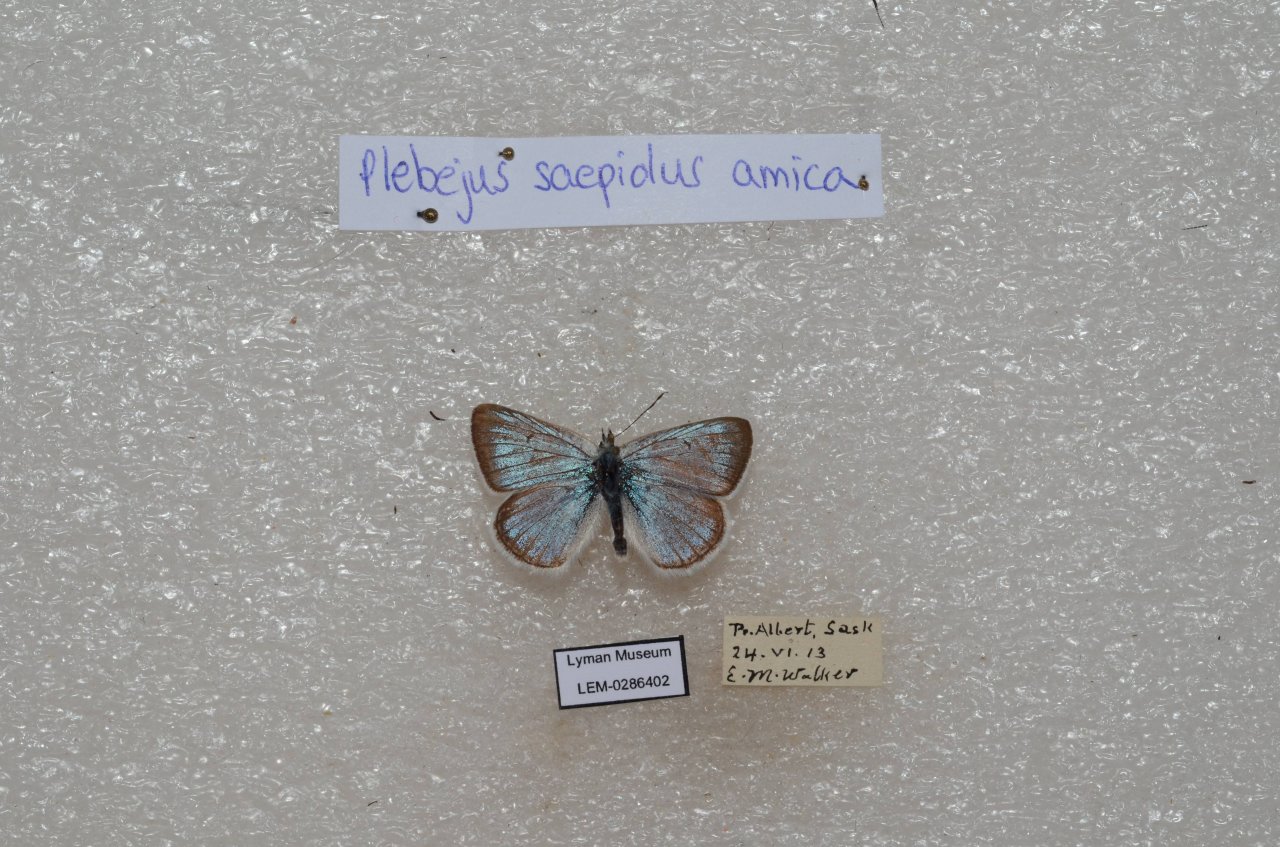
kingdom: Animalia
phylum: Arthropoda
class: Insecta
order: Lepidoptera
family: Lycaenidae
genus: Plebejus
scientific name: Plebejus saepiolus
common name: Greenish Blue
